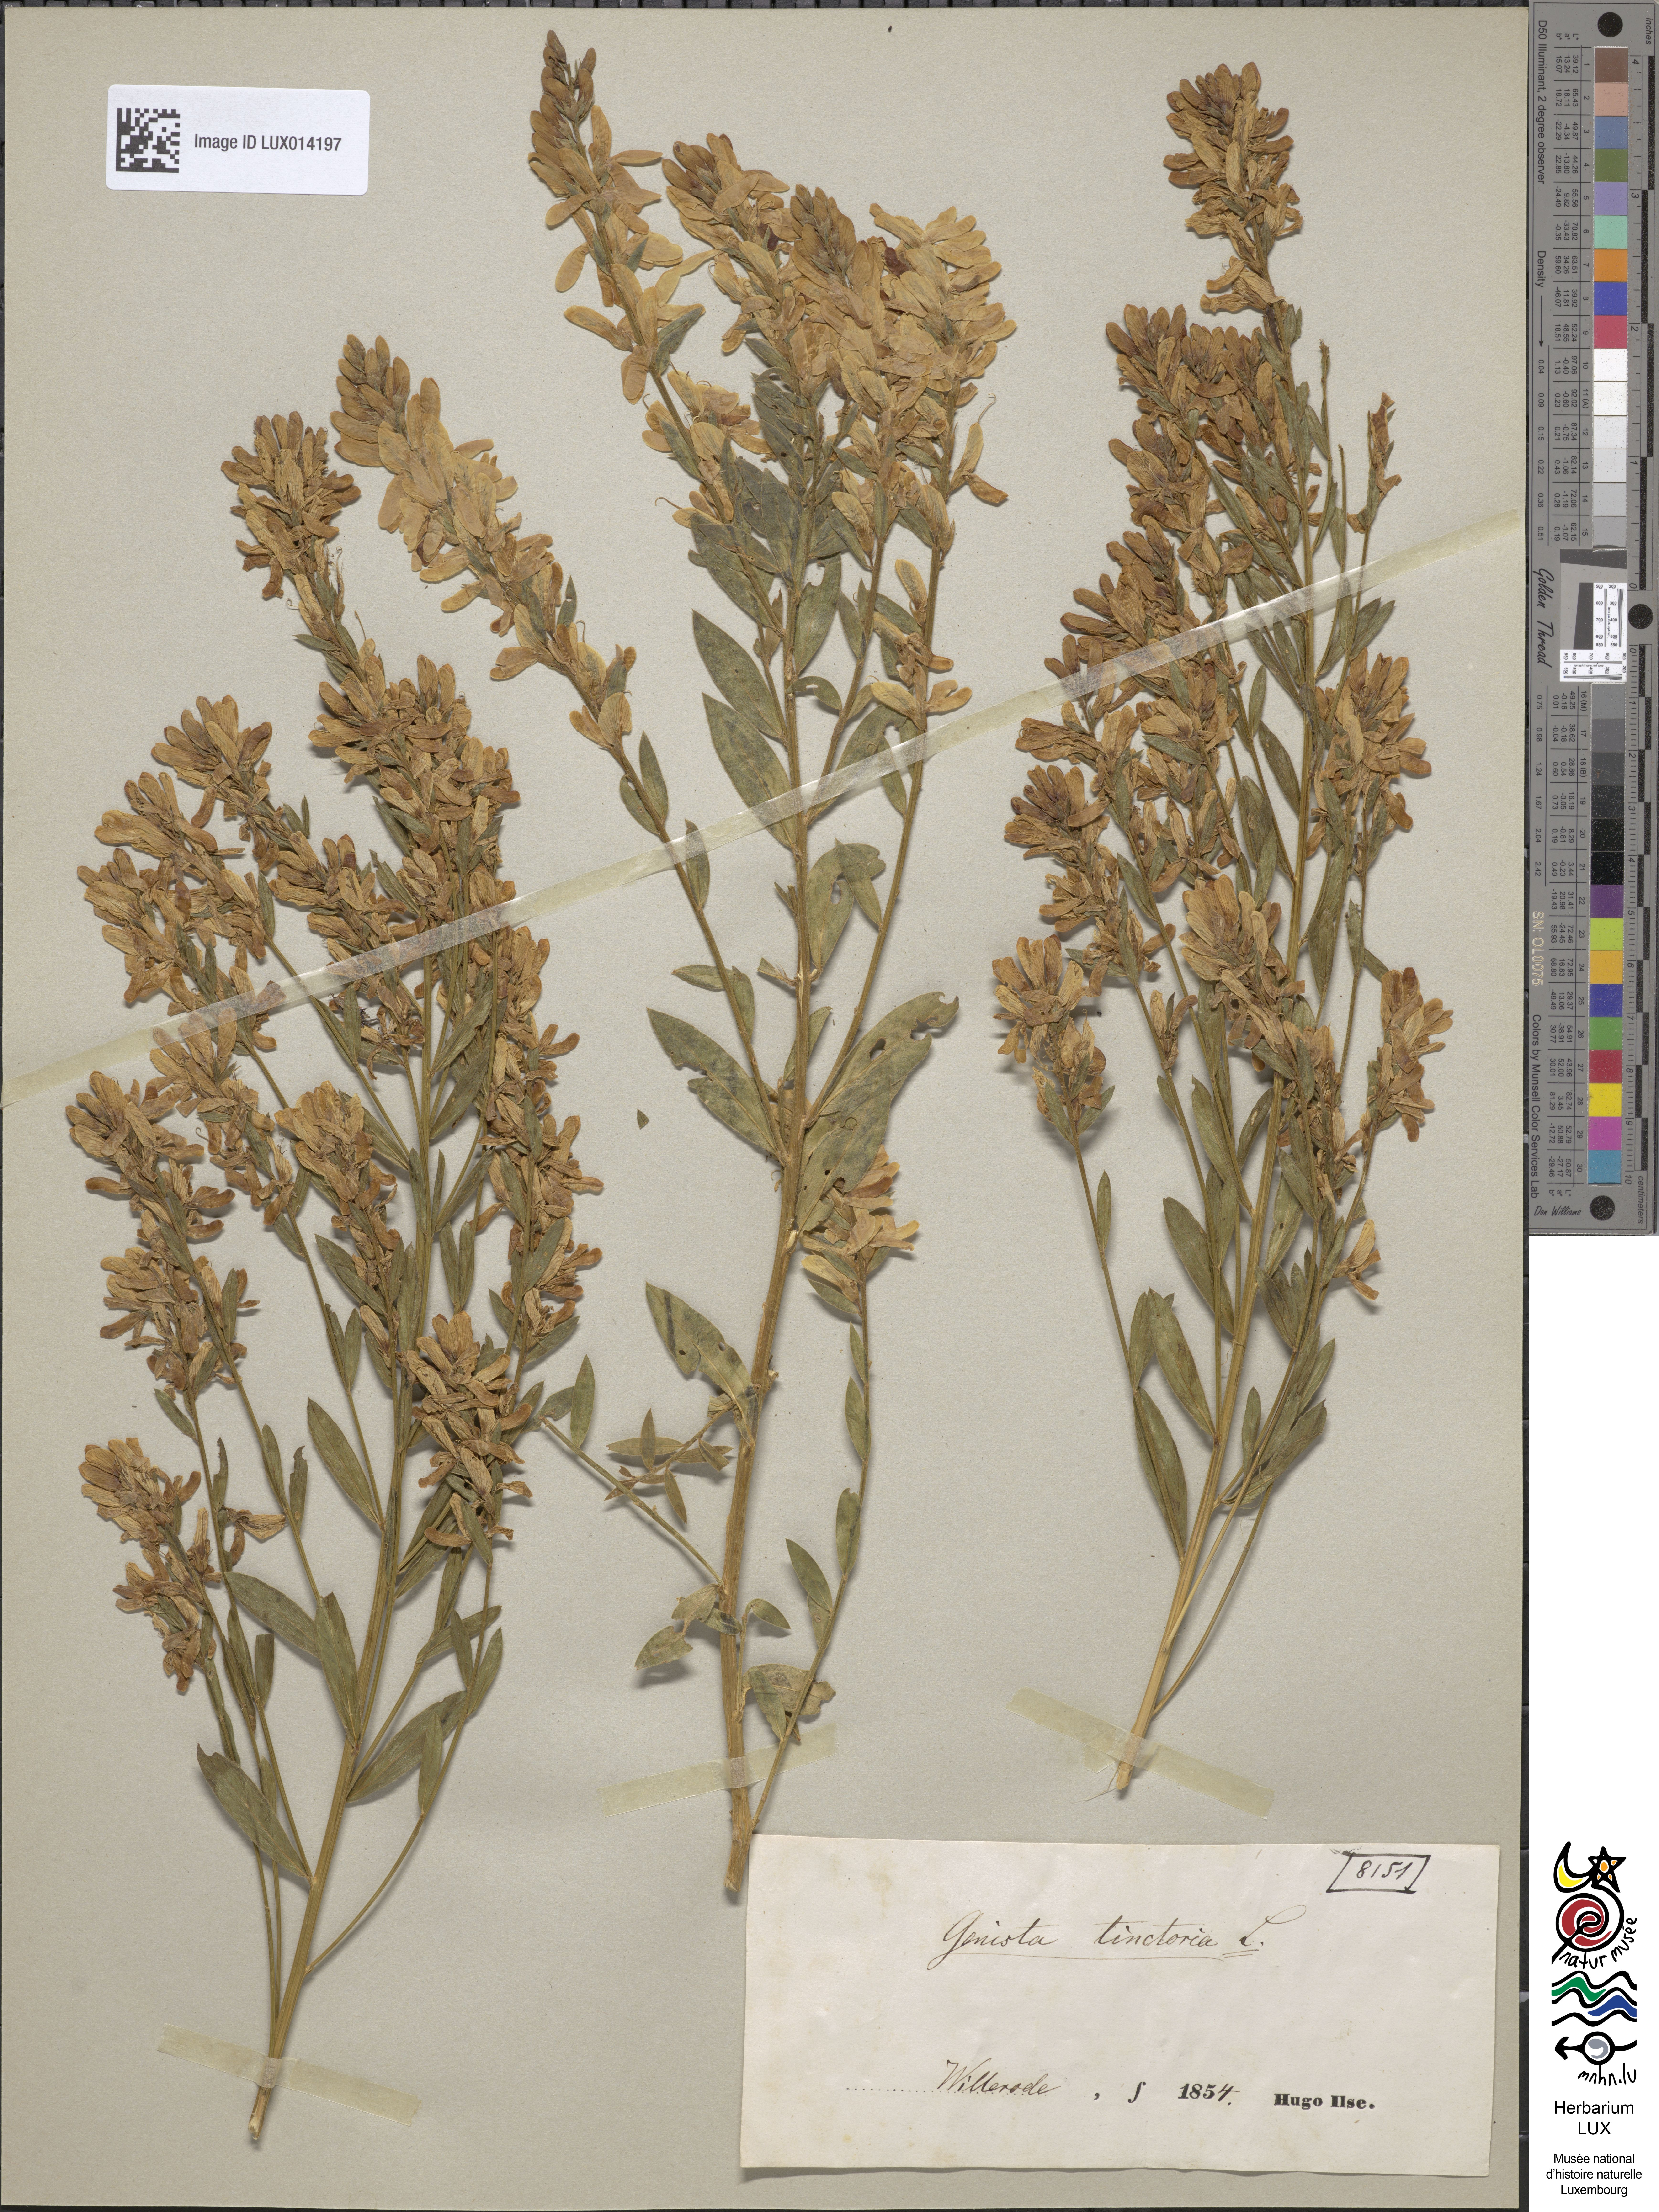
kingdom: Plantae
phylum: Tracheophyta
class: Magnoliopsida
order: Fabales
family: Fabaceae
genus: Genista
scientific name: Genista tinctoria
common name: Dyer's greenweed
